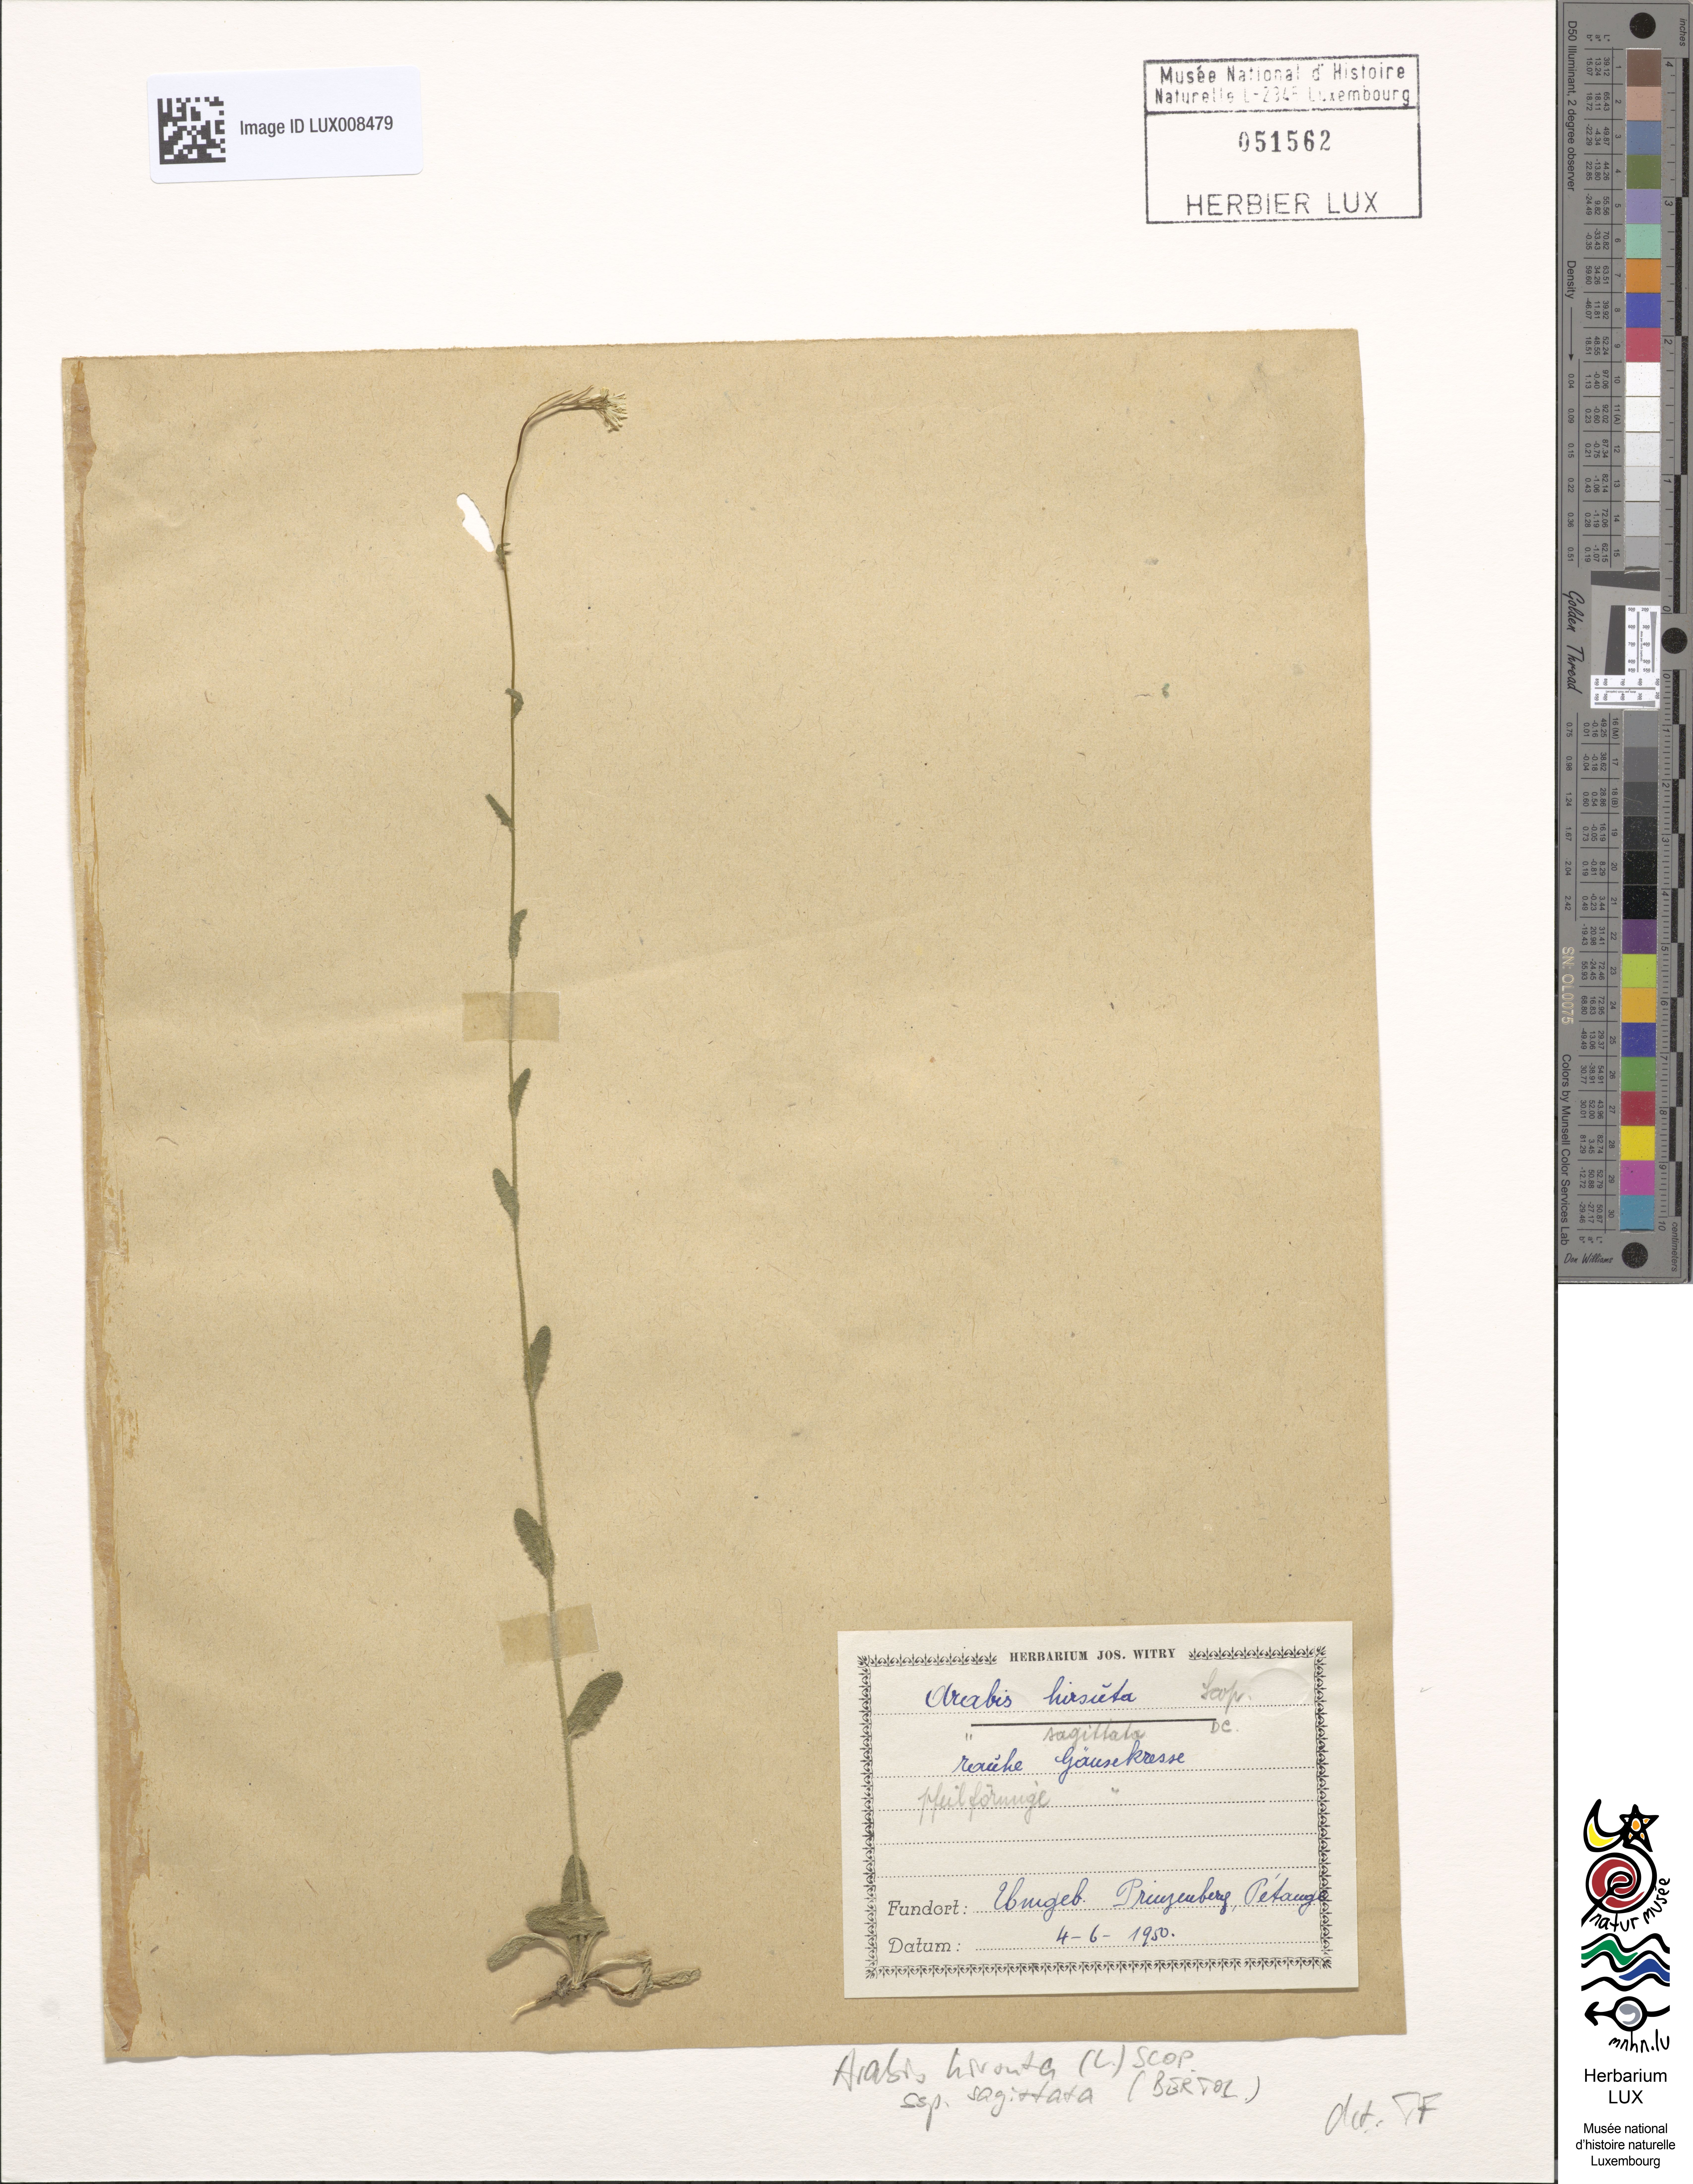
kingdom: Plantae
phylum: Tracheophyta
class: Magnoliopsida
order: Brassicales
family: Brassicaceae
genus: Arabis
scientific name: Arabis sagittata
